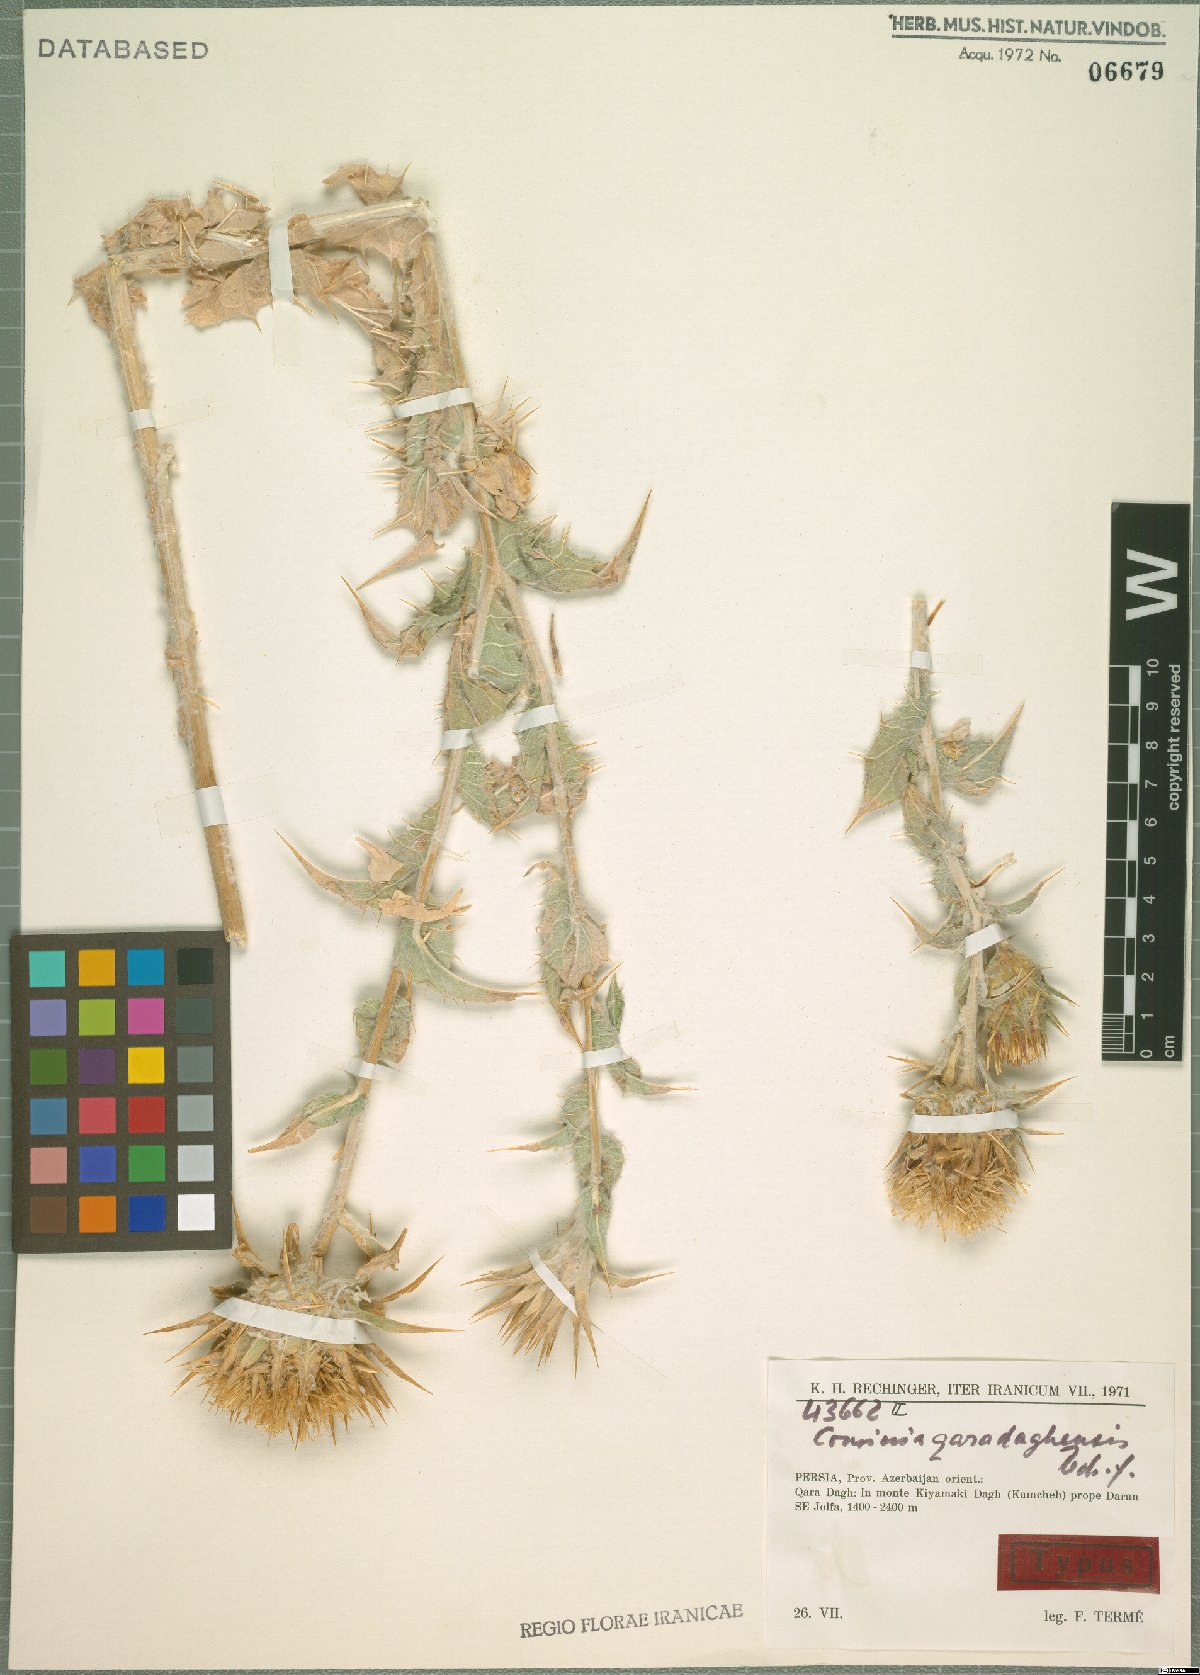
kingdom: Plantae
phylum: Tracheophyta
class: Magnoliopsida
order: Asterales
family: Asteraceae
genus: Cousinia
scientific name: Cousinia qaradaghensis
